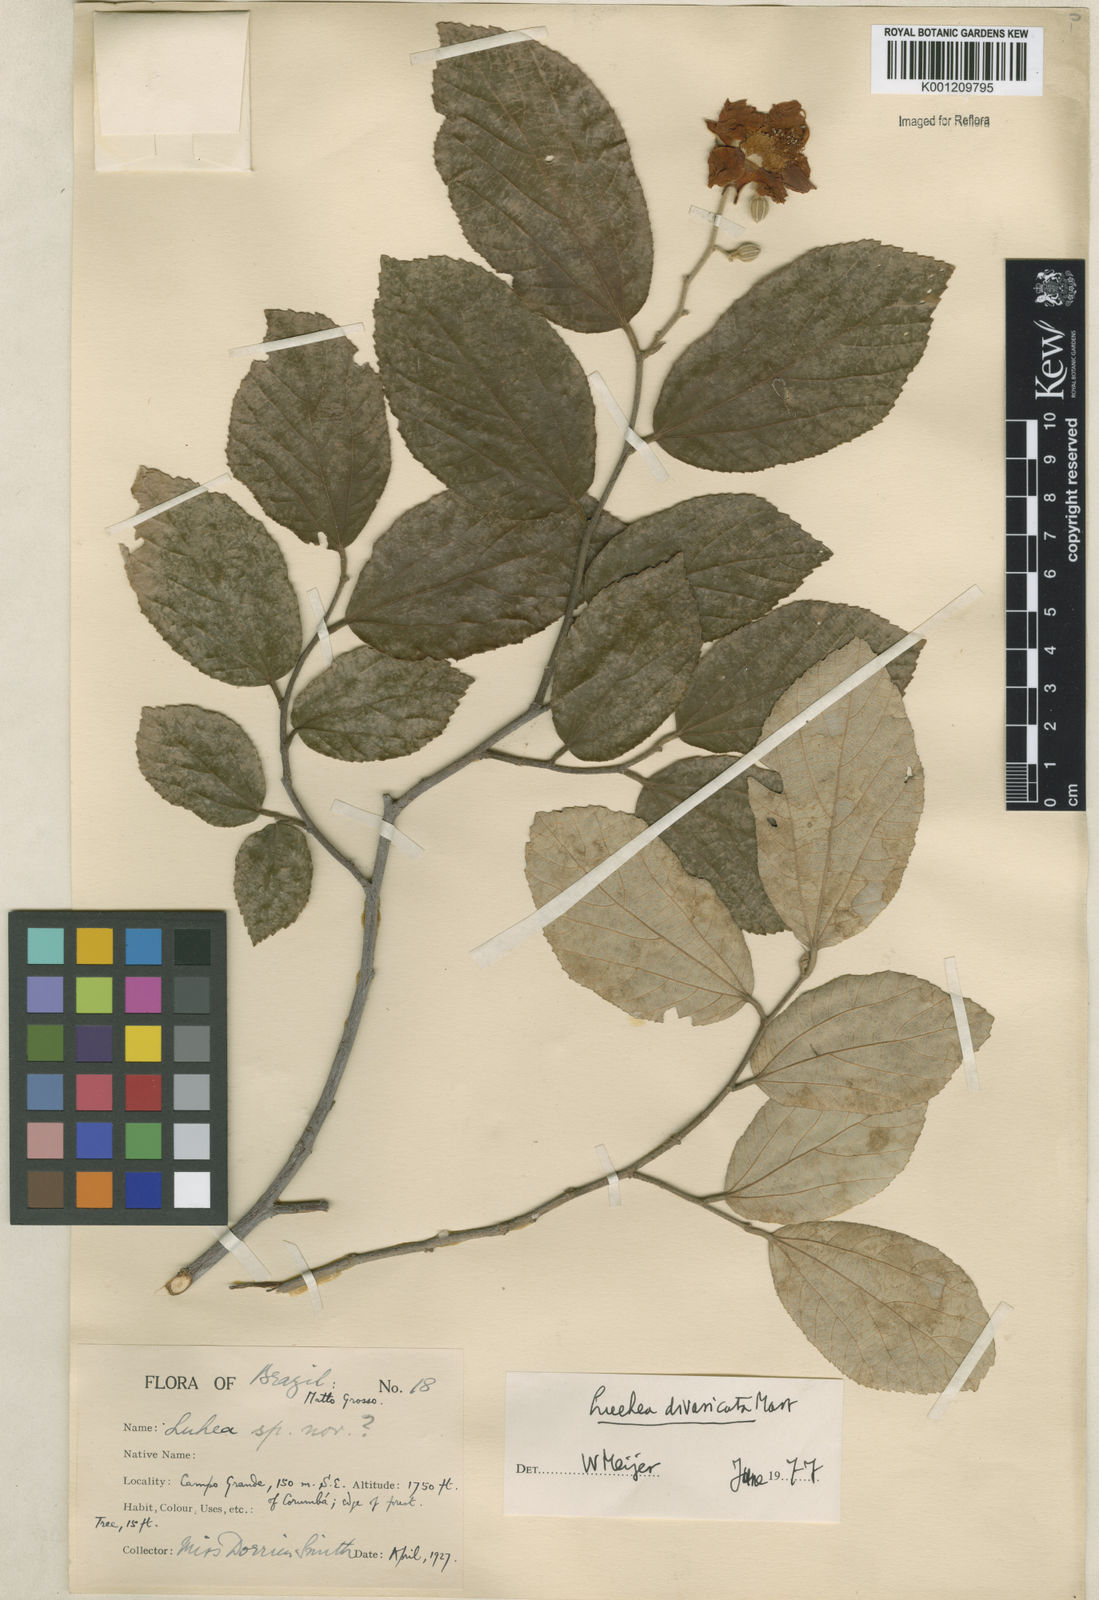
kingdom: Plantae
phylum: Tracheophyta
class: Magnoliopsida
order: Malvales
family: Malvaceae
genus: Luehea
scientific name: Luehea divaricata
